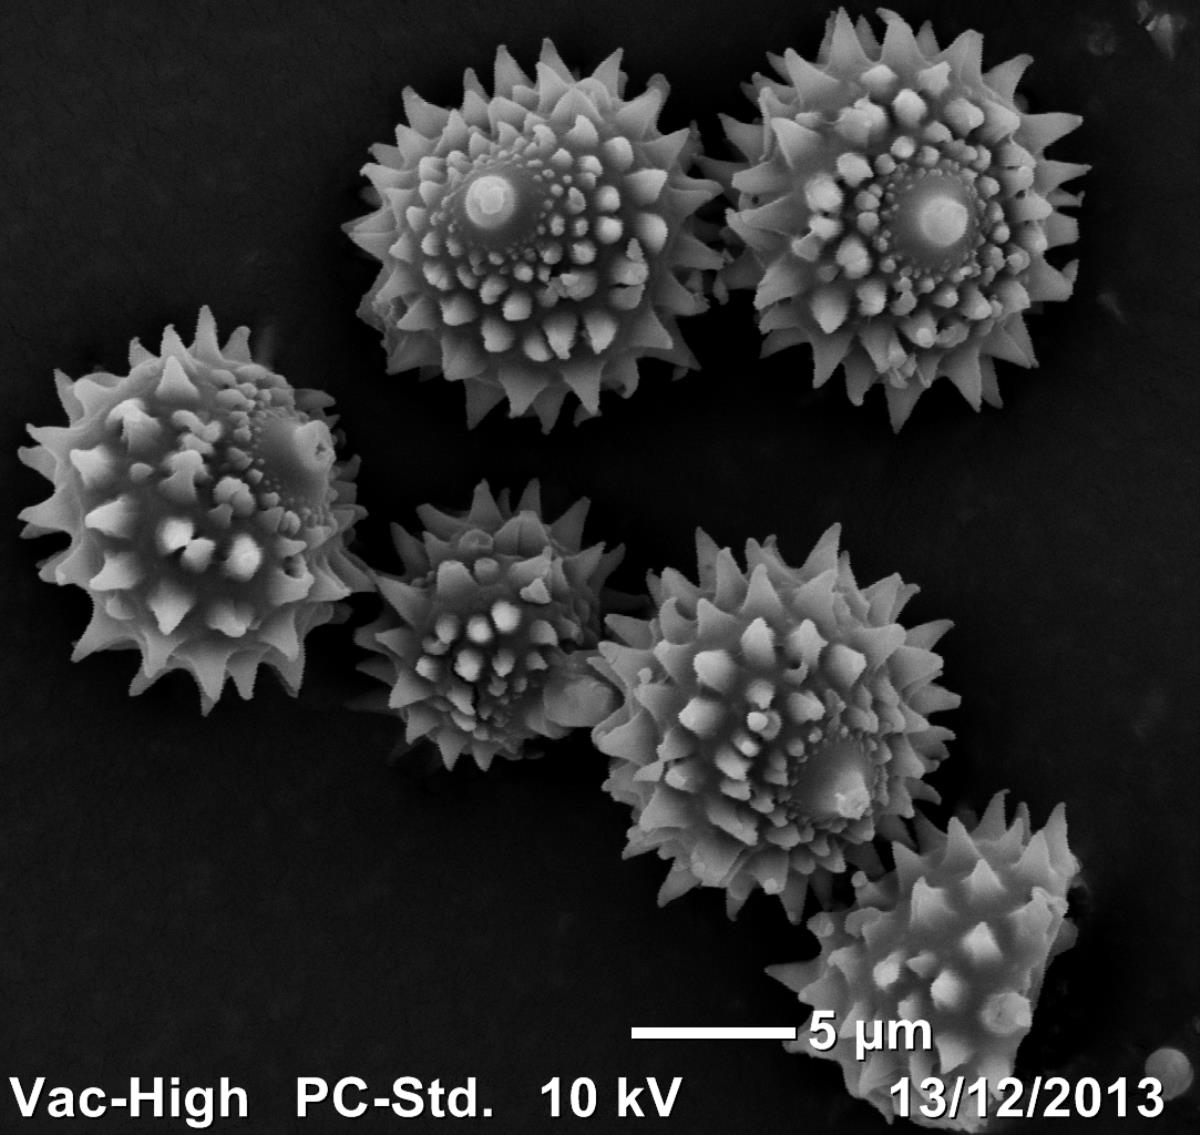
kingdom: Fungi
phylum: Basidiomycota
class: Agaricomycetes
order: Agaricales
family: Hydnangiaceae
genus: Hydnangium
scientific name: Hydnangium carneum
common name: Flesh-pink truffle
